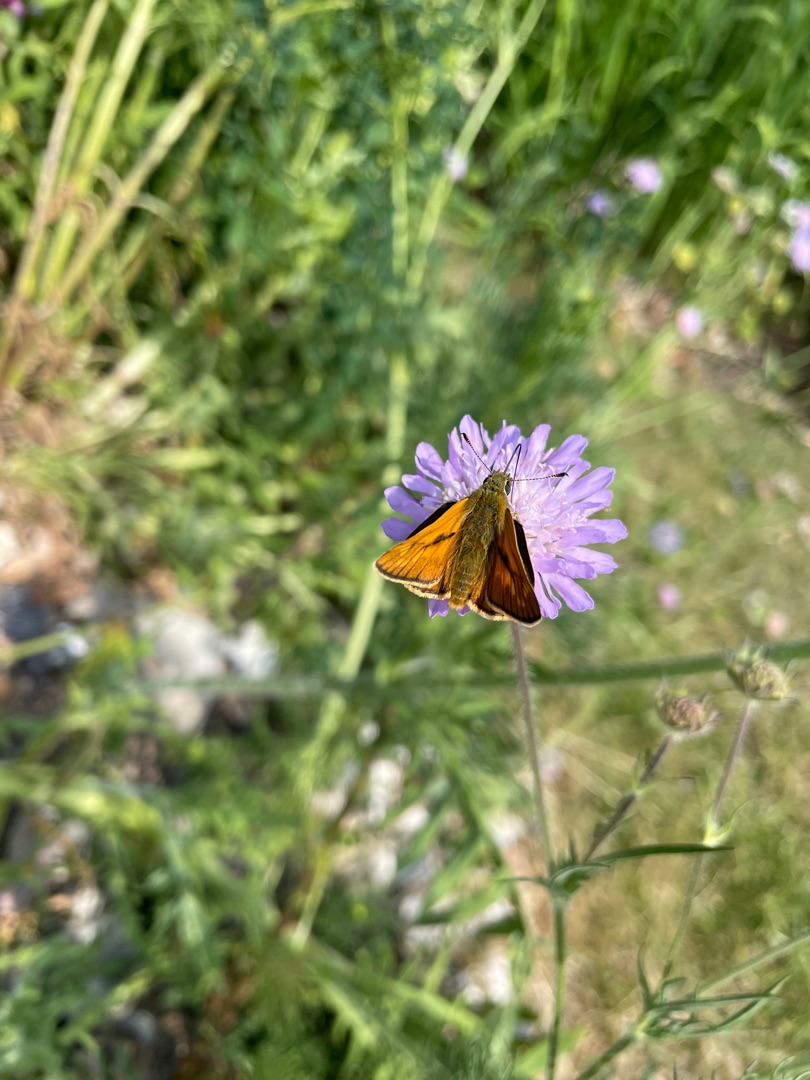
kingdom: Animalia
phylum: Arthropoda
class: Insecta
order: Lepidoptera
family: Hesperiidae
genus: Ochlodes
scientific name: Ochlodes venata
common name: Stor bredpande
